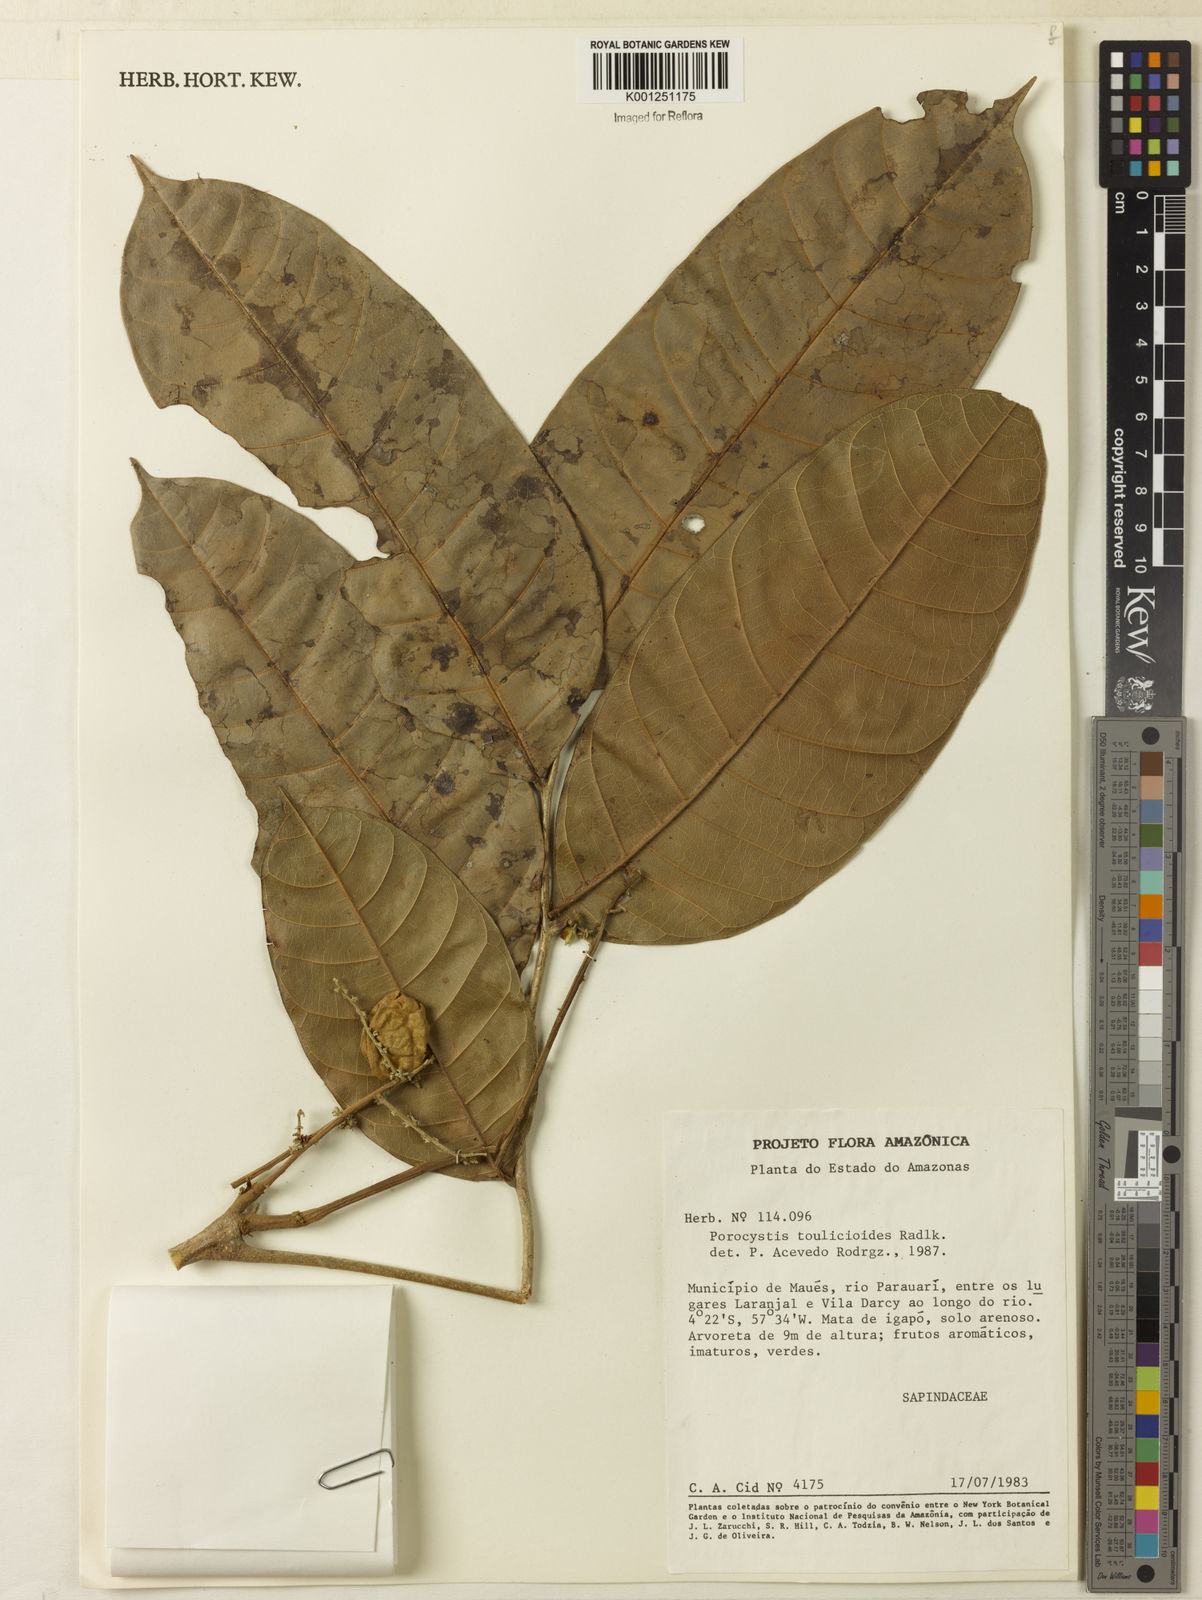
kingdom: Plantae
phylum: Tracheophyta
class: Magnoliopsida
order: Sapindales
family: Sapindaceae
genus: Porocystis
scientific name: Porocystis toulicioides
